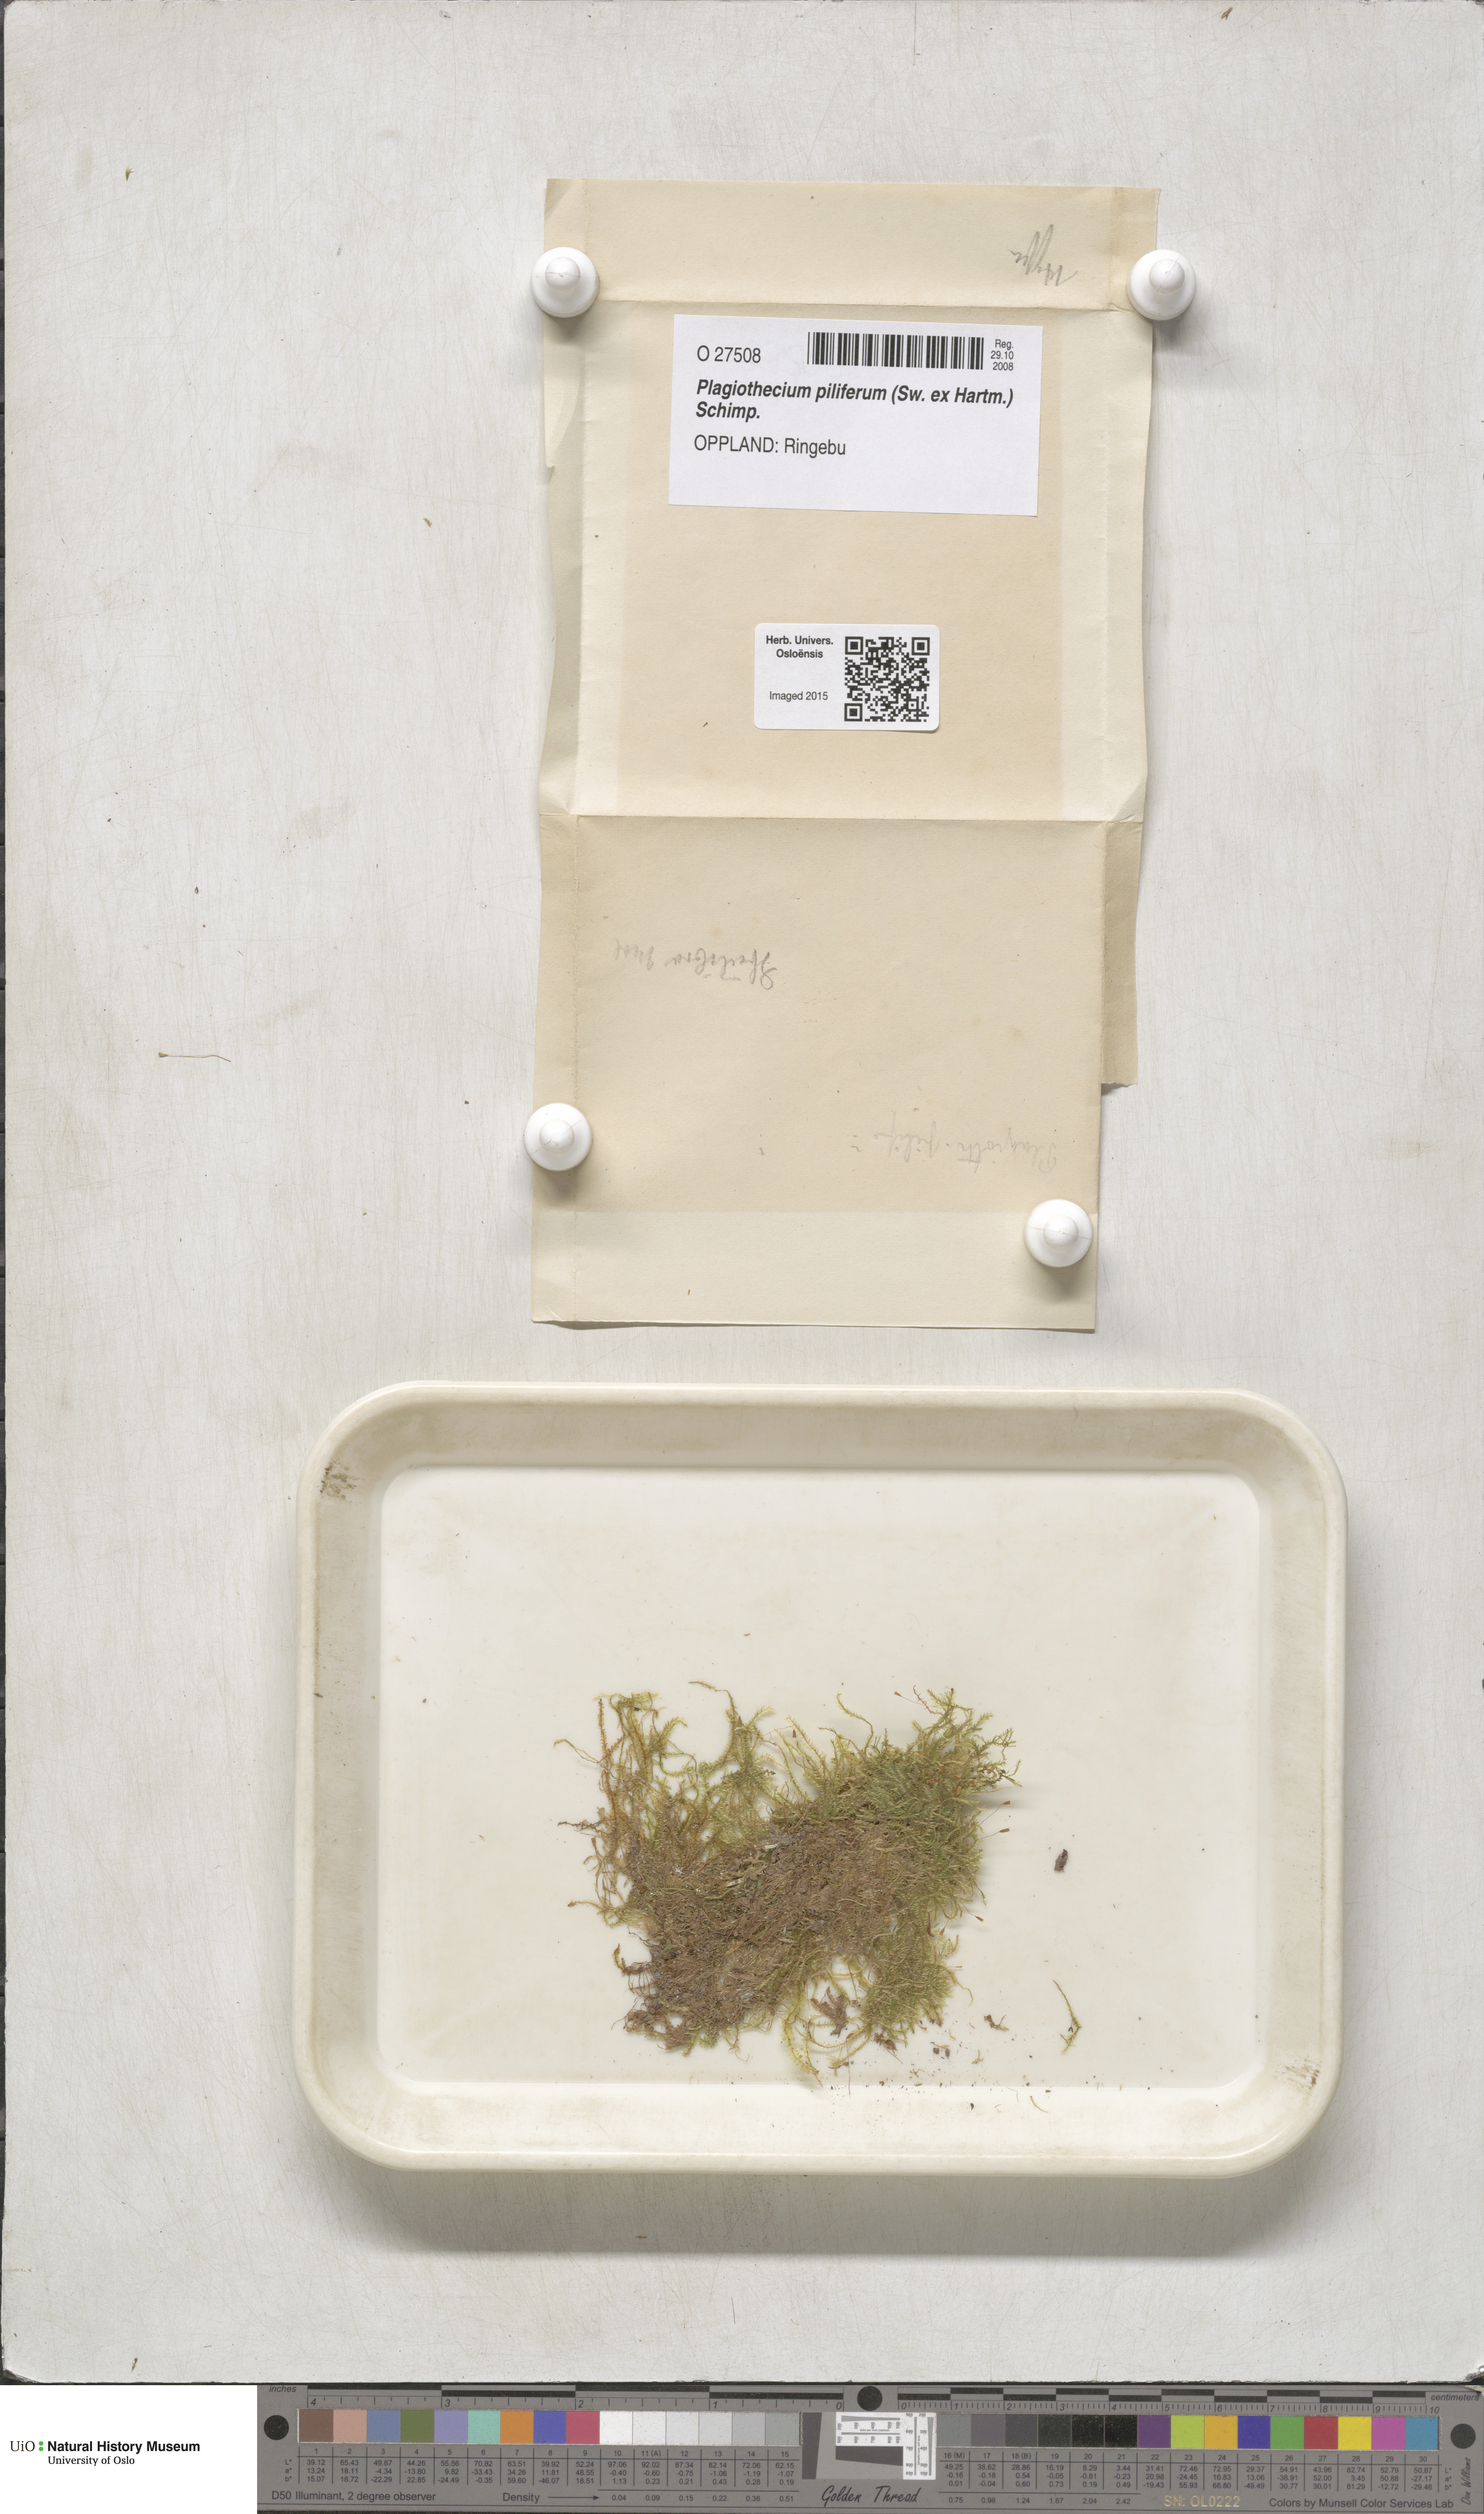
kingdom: Plantae
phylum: Bryophyta
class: Bryopsida
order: Hypnales
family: Plagiotheciaceae
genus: Rectithecium
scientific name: Rectithecium piliferum
